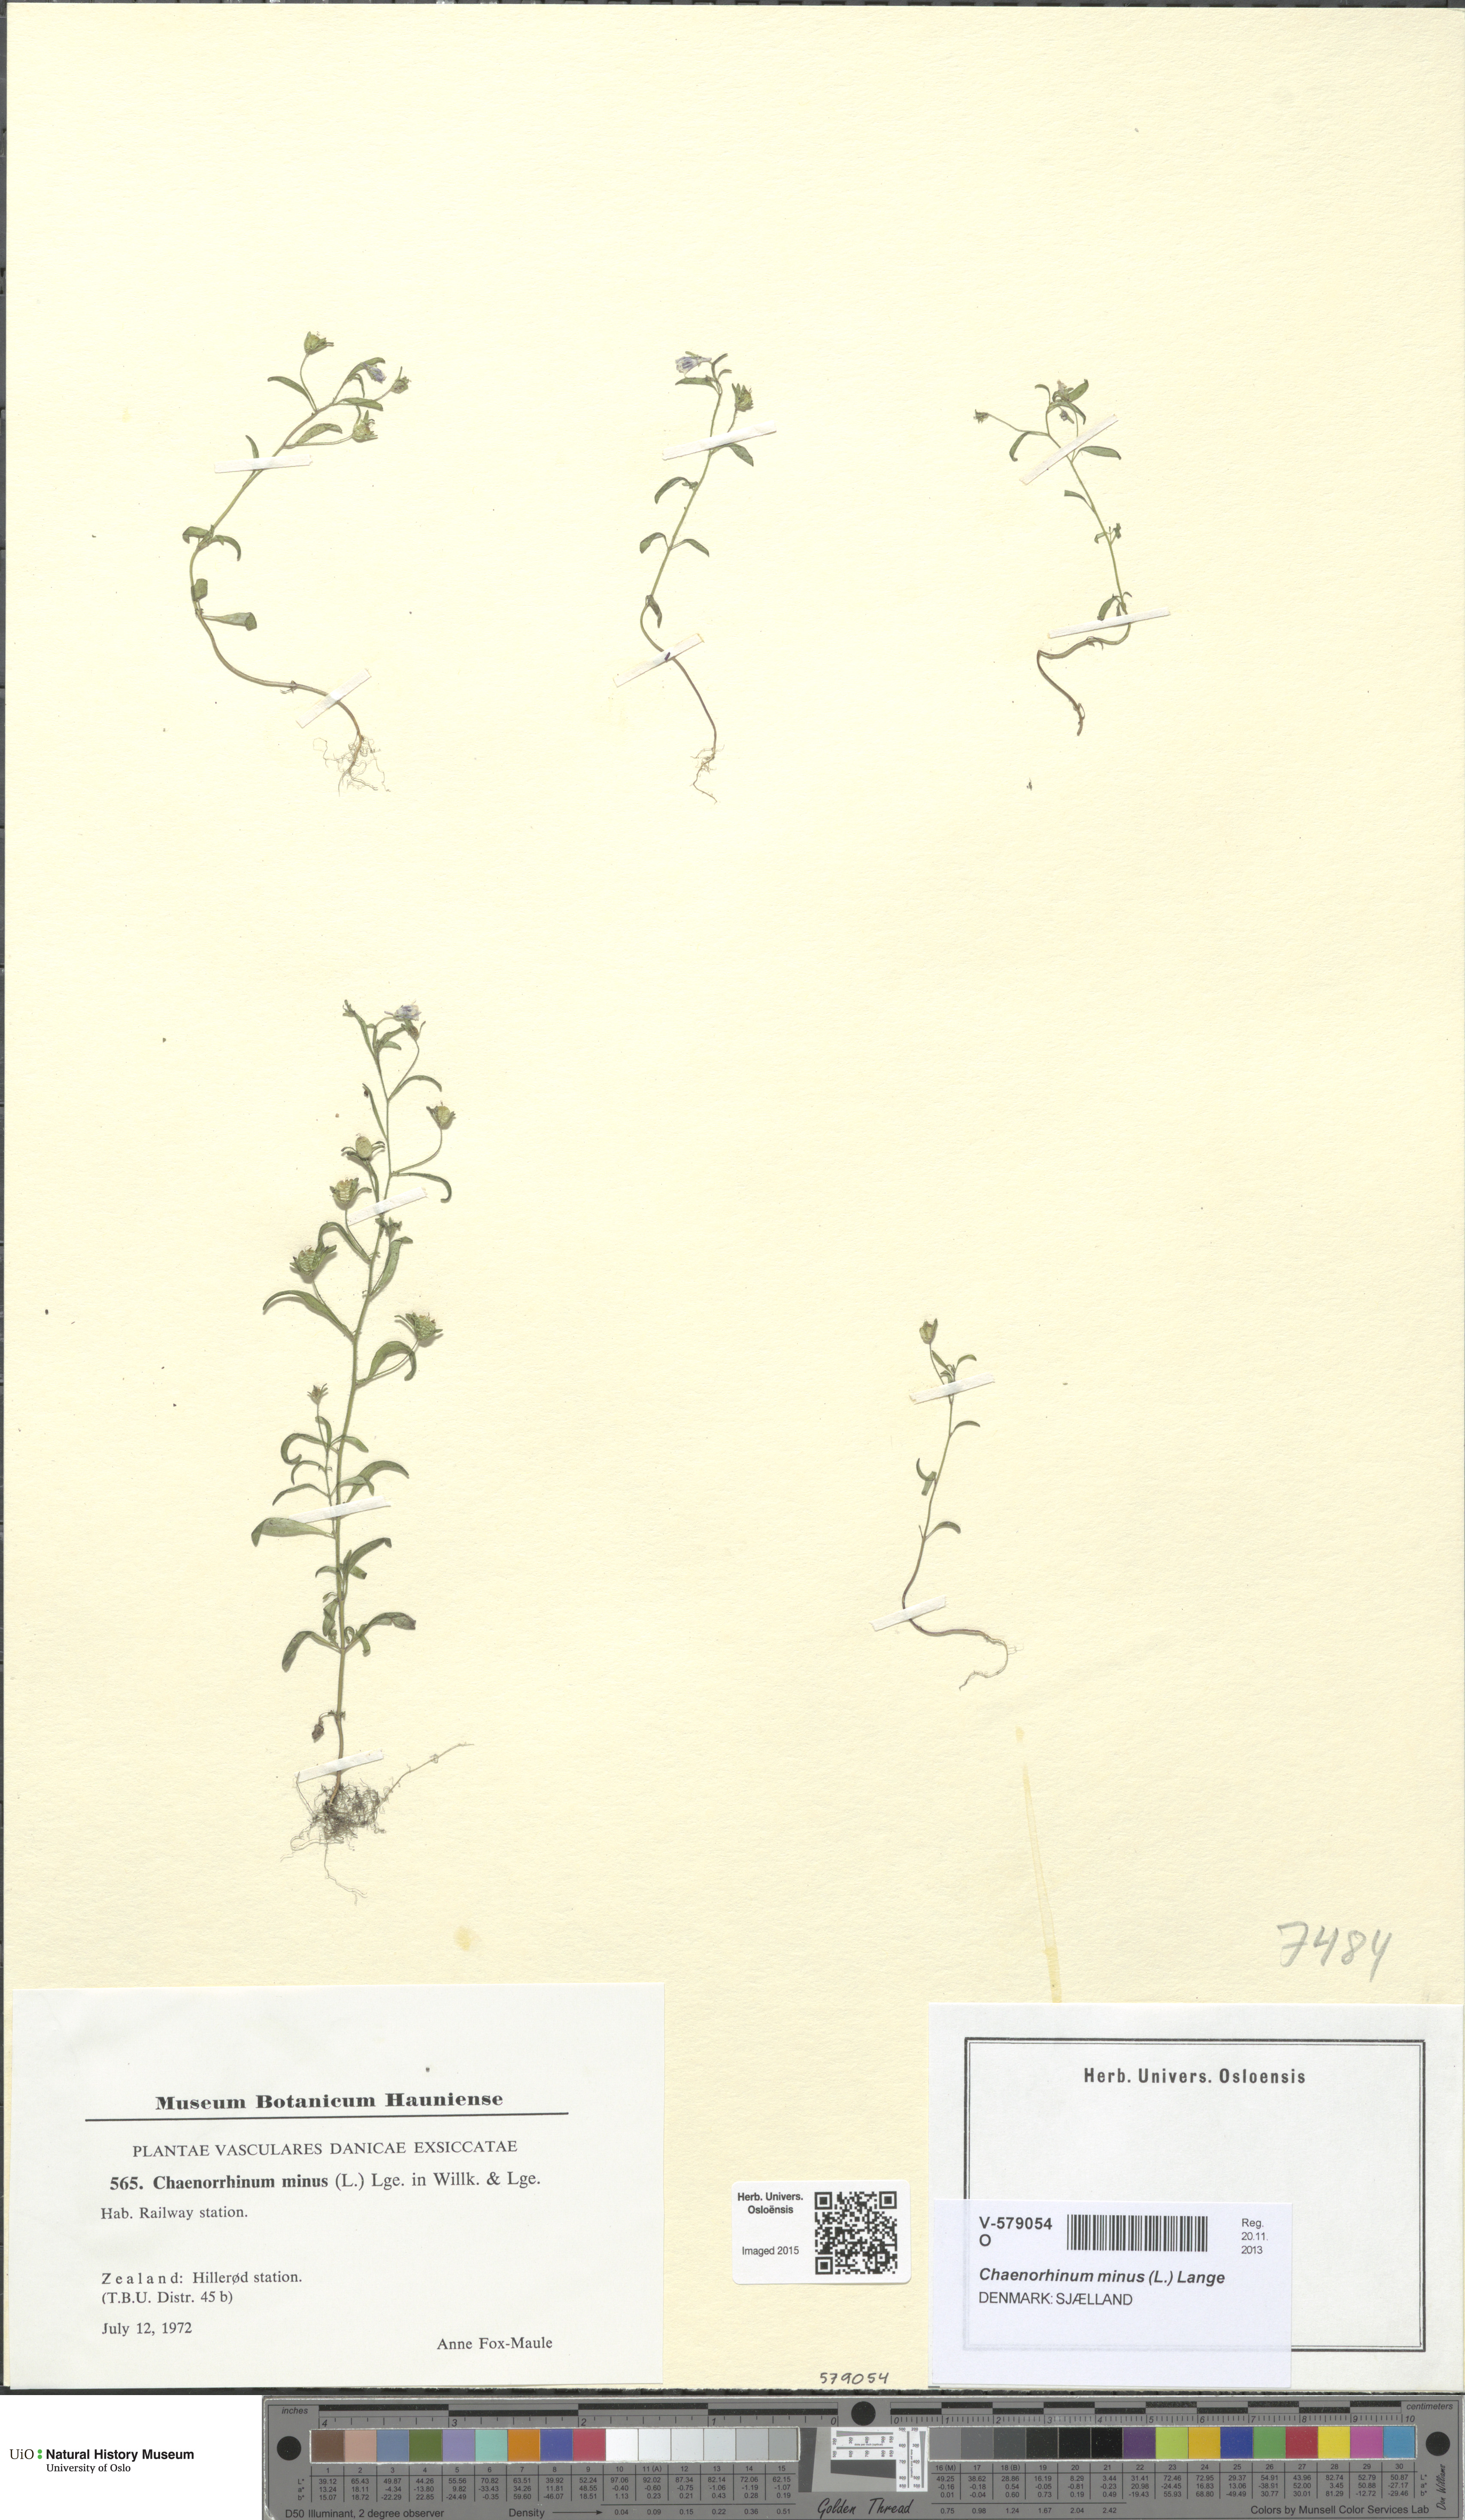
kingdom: Plantae
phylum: Tracheophyta
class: Magnoliopsida
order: Lamiales
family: Plantaginaceae
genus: Chaenorhinum
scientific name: Chaenorhinum minus
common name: Dwarf snapdragon
